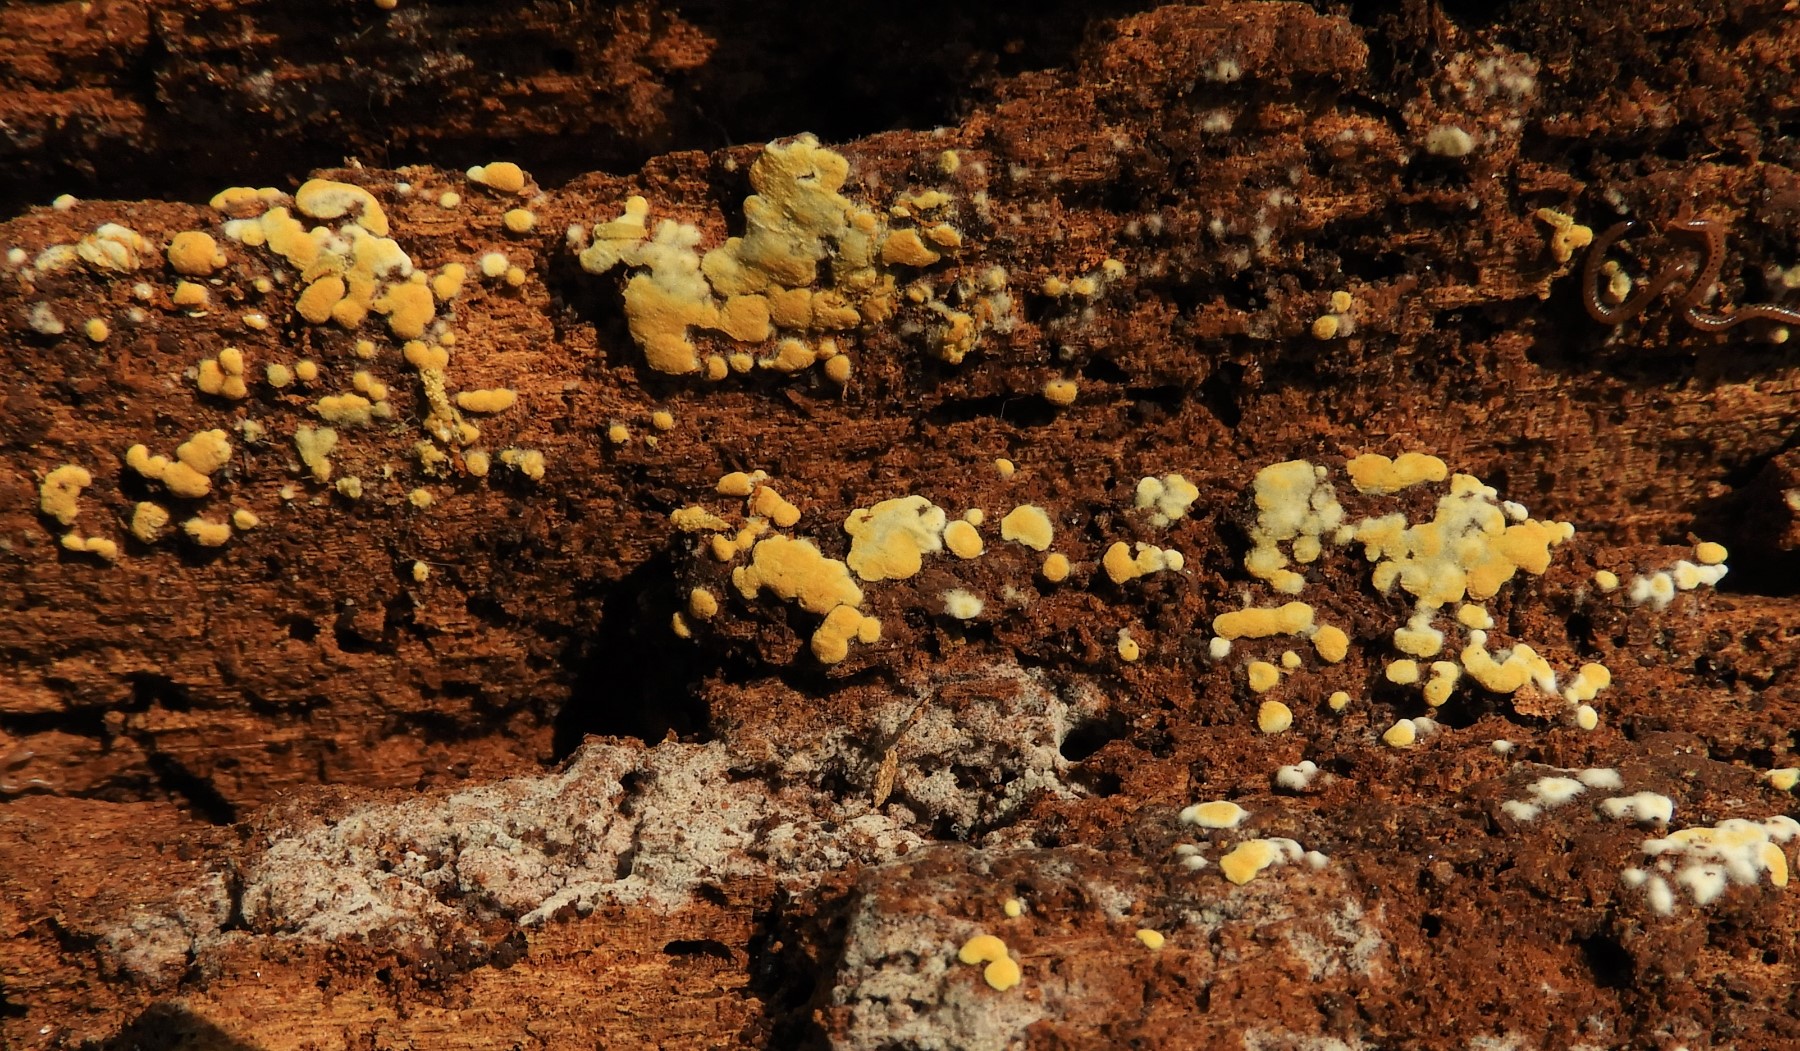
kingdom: Fungi
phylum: Basidiomycota
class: Agaricomycetes
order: Cantharellales
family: Botryobasidiaceae
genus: Botryobasidium
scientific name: Botryobasidium aureum
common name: gylden spindhinde
